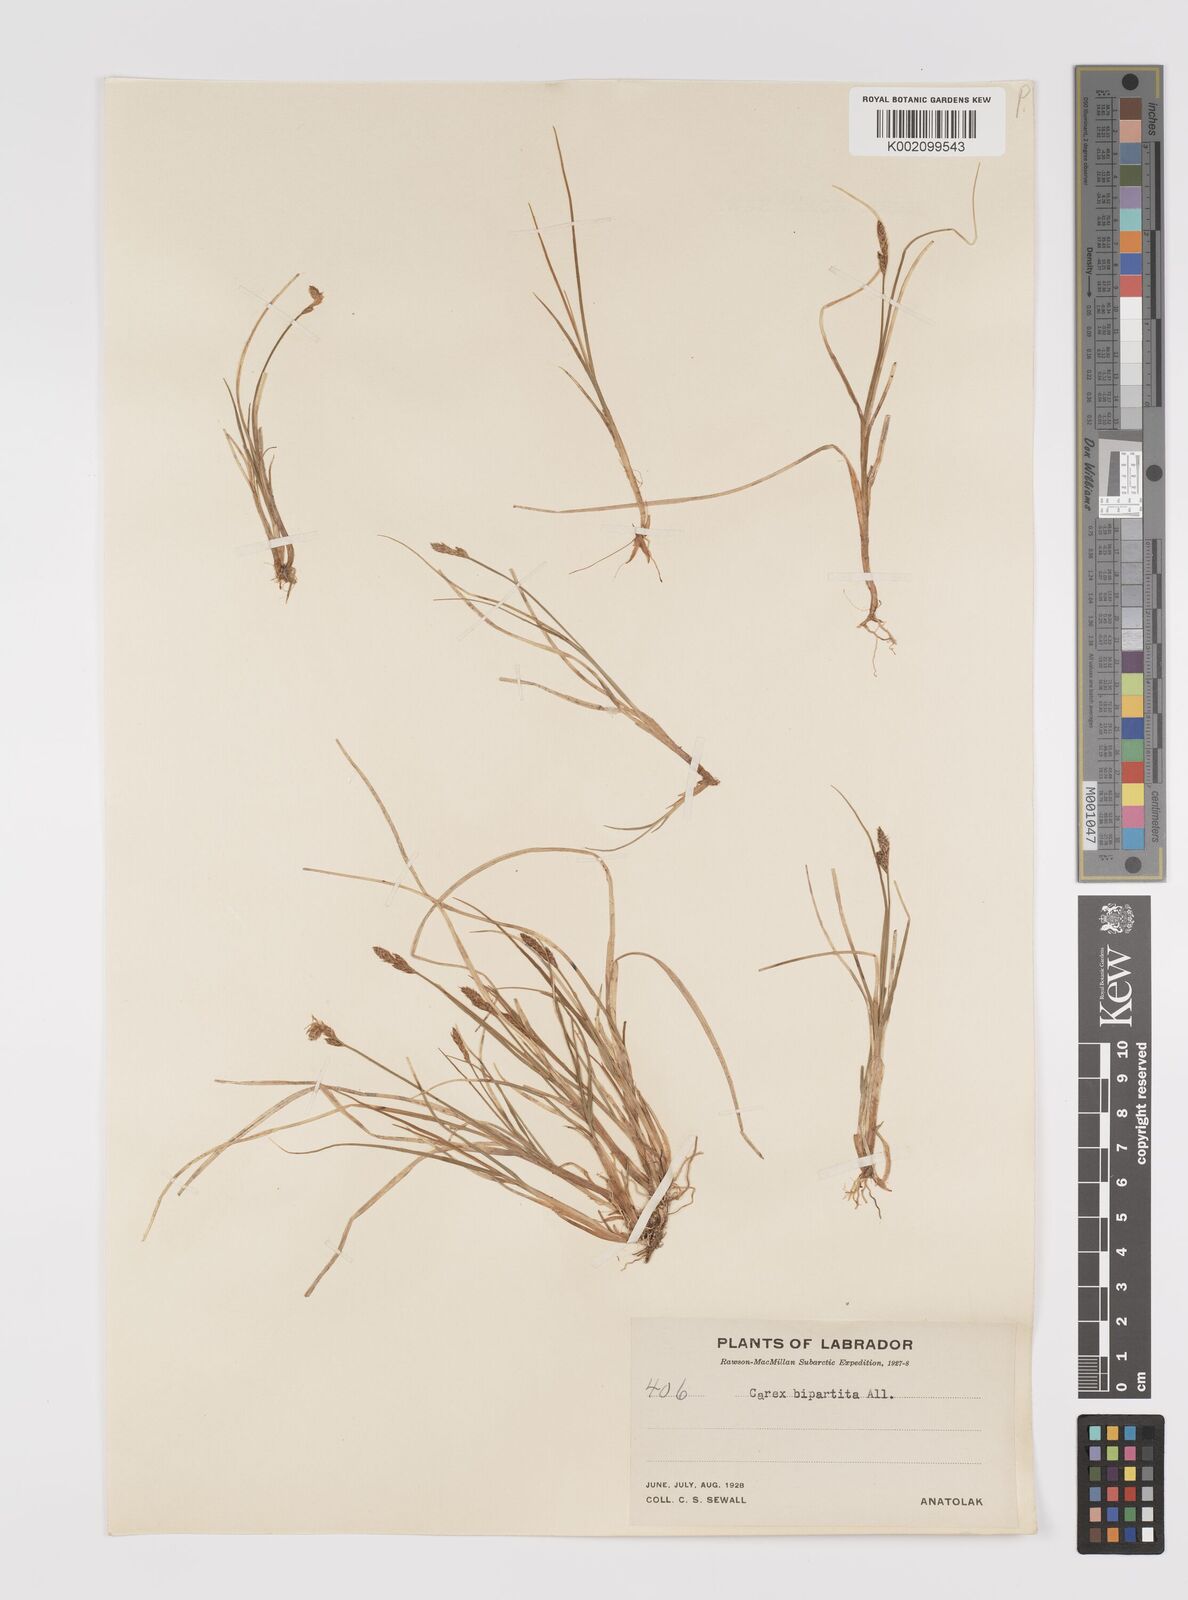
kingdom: Plantae
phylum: Tracheophyta
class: Liliopsida
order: Poales
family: Cyperaceae
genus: Carex
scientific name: Carex lachenalii
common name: Hare's-foot sedge
